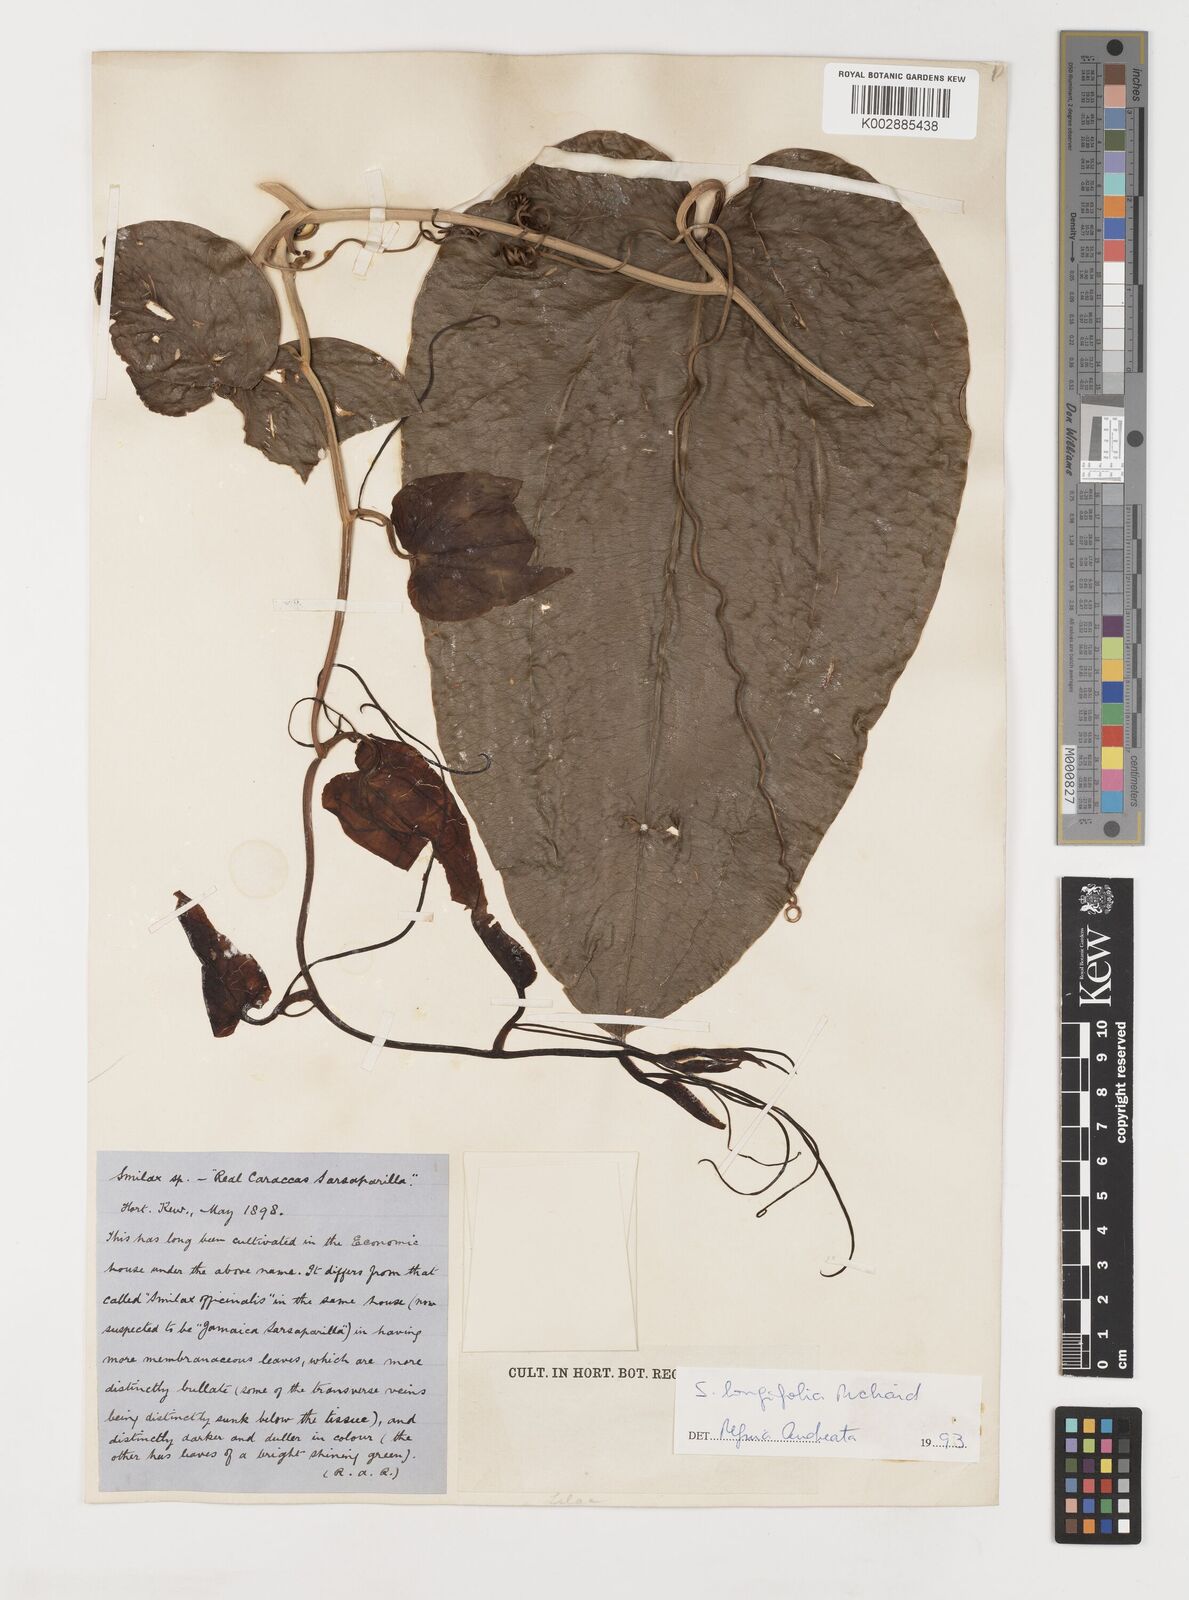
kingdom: Plantae
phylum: Tracheophyta
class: Liliopsida
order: Liliales
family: Smilacaceae
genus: Smilax
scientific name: Smilax longifolia
